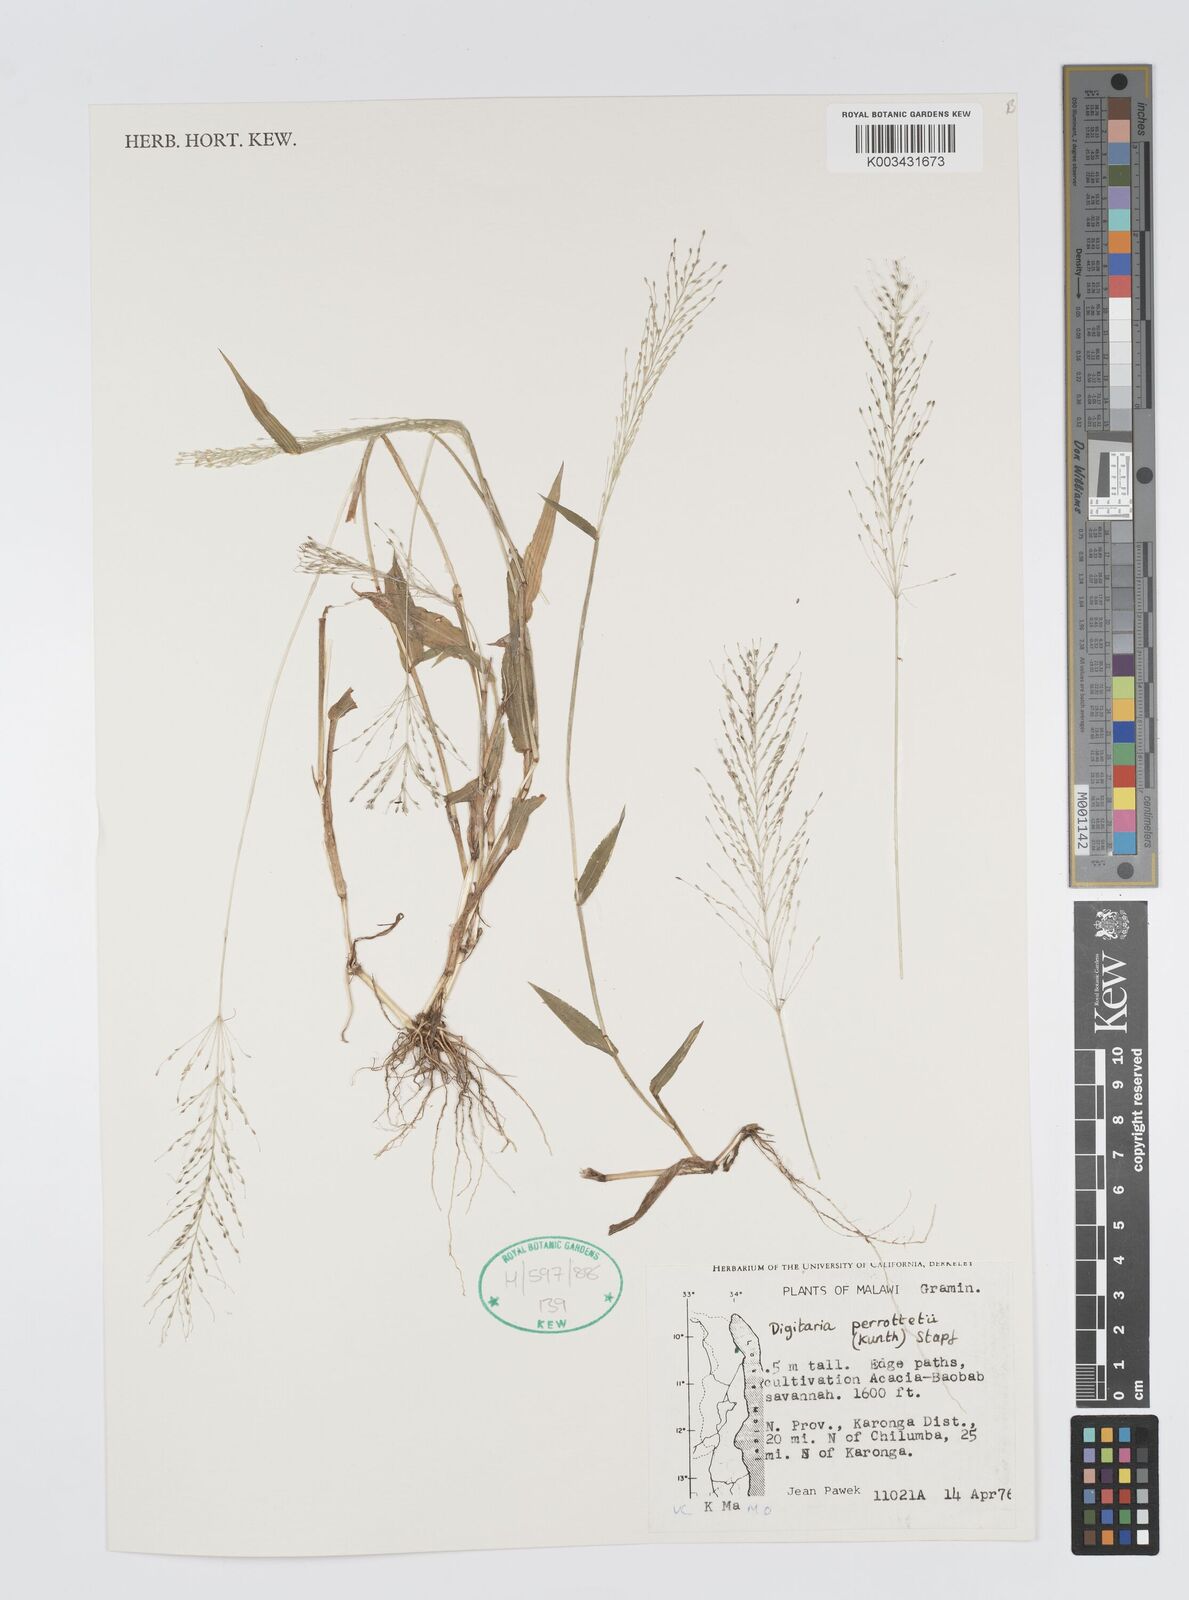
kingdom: Plantae
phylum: Tracheophyta
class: Liliopsida
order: Poales
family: Poaceae
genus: Digitaria
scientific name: Digitaria perrottetii
